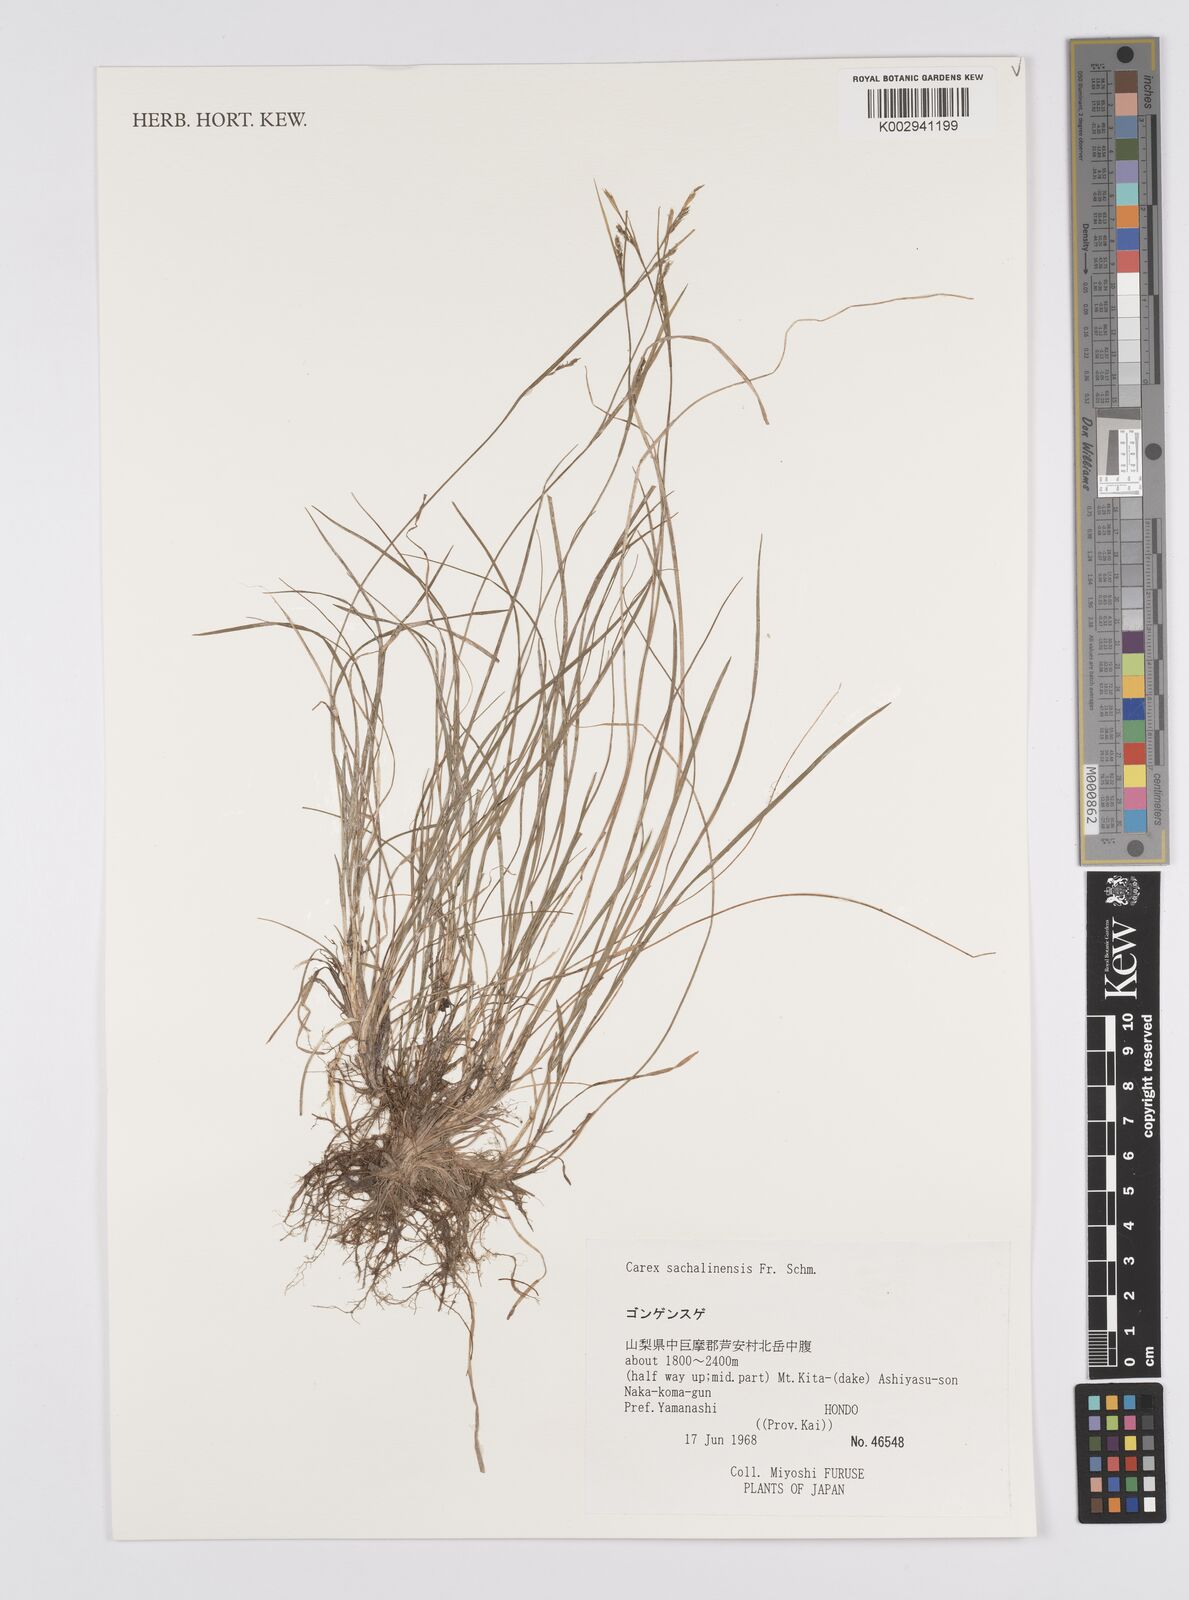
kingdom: Plantae
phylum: Tracheophyta
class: Liliopsida
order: Poales
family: Cyperaceae
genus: Carex
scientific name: Carex pisiformis
